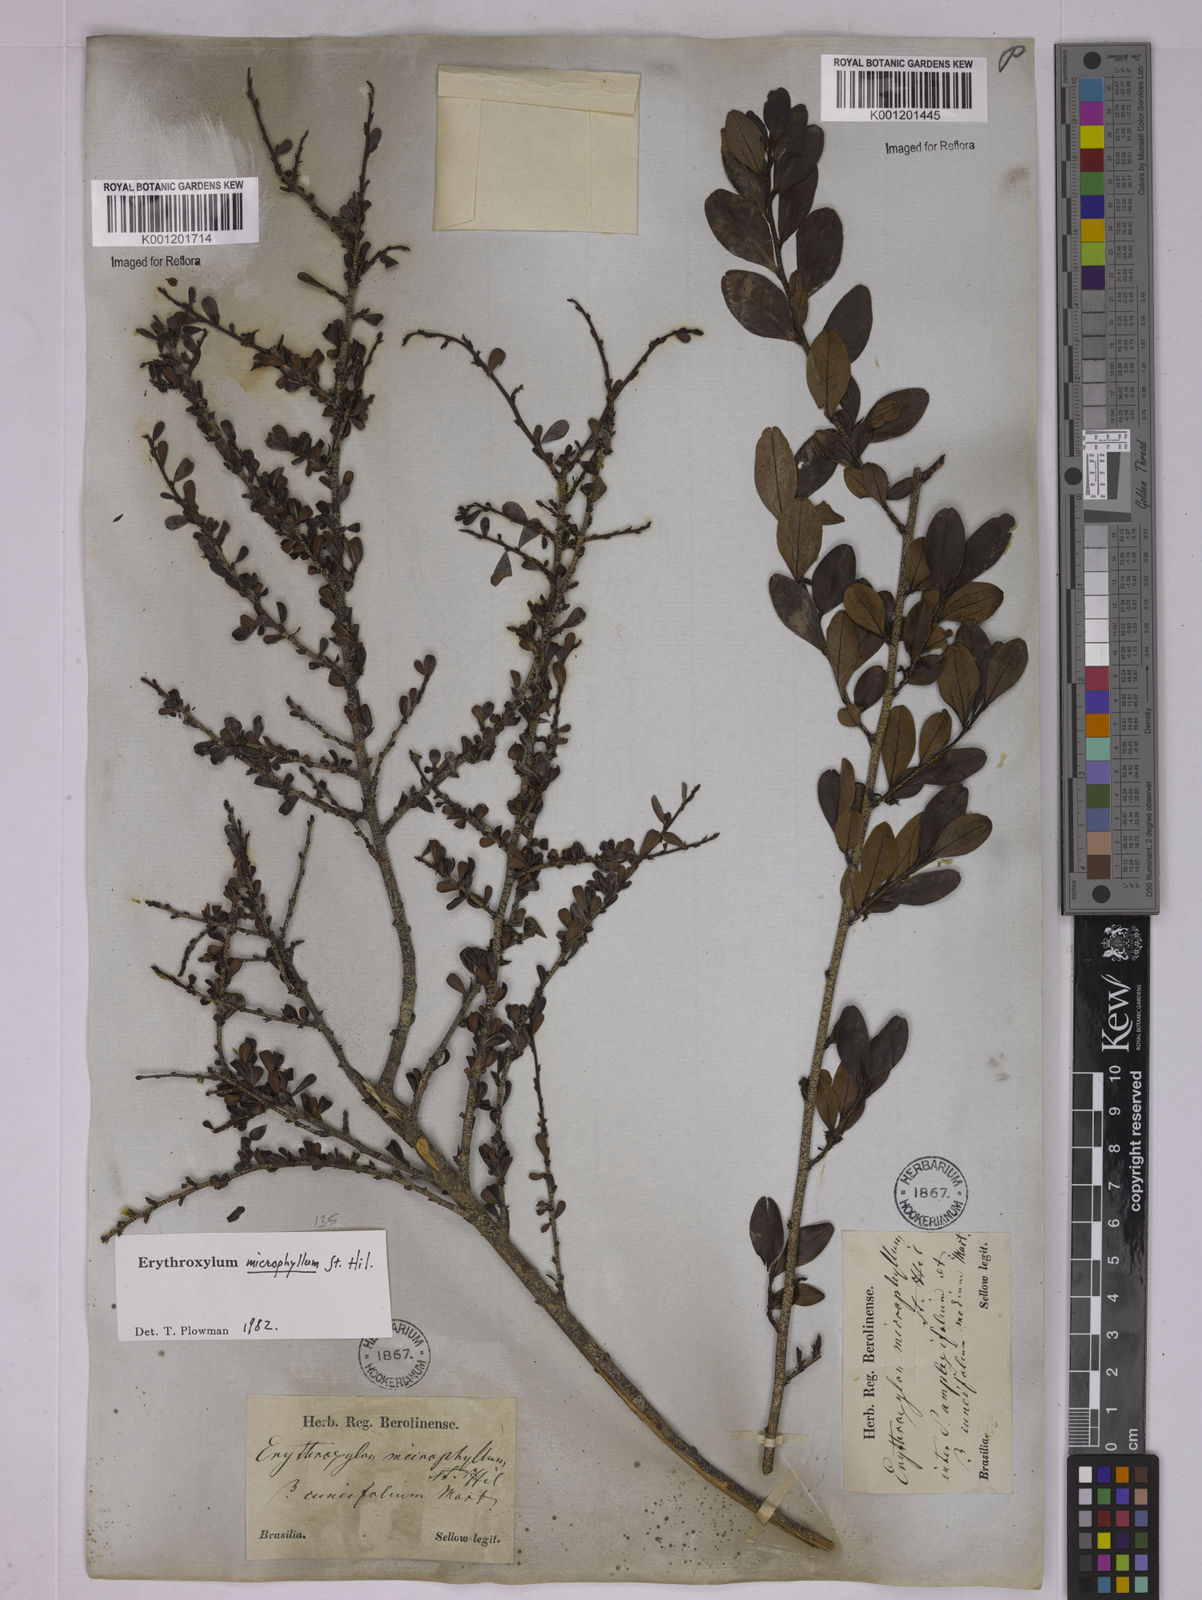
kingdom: Plantae
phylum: Tracheophyta
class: Magnoliopsida
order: Malpighiales
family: Erythroxylaceae
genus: Erythroxylum
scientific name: Erythroxylum microphyllum
